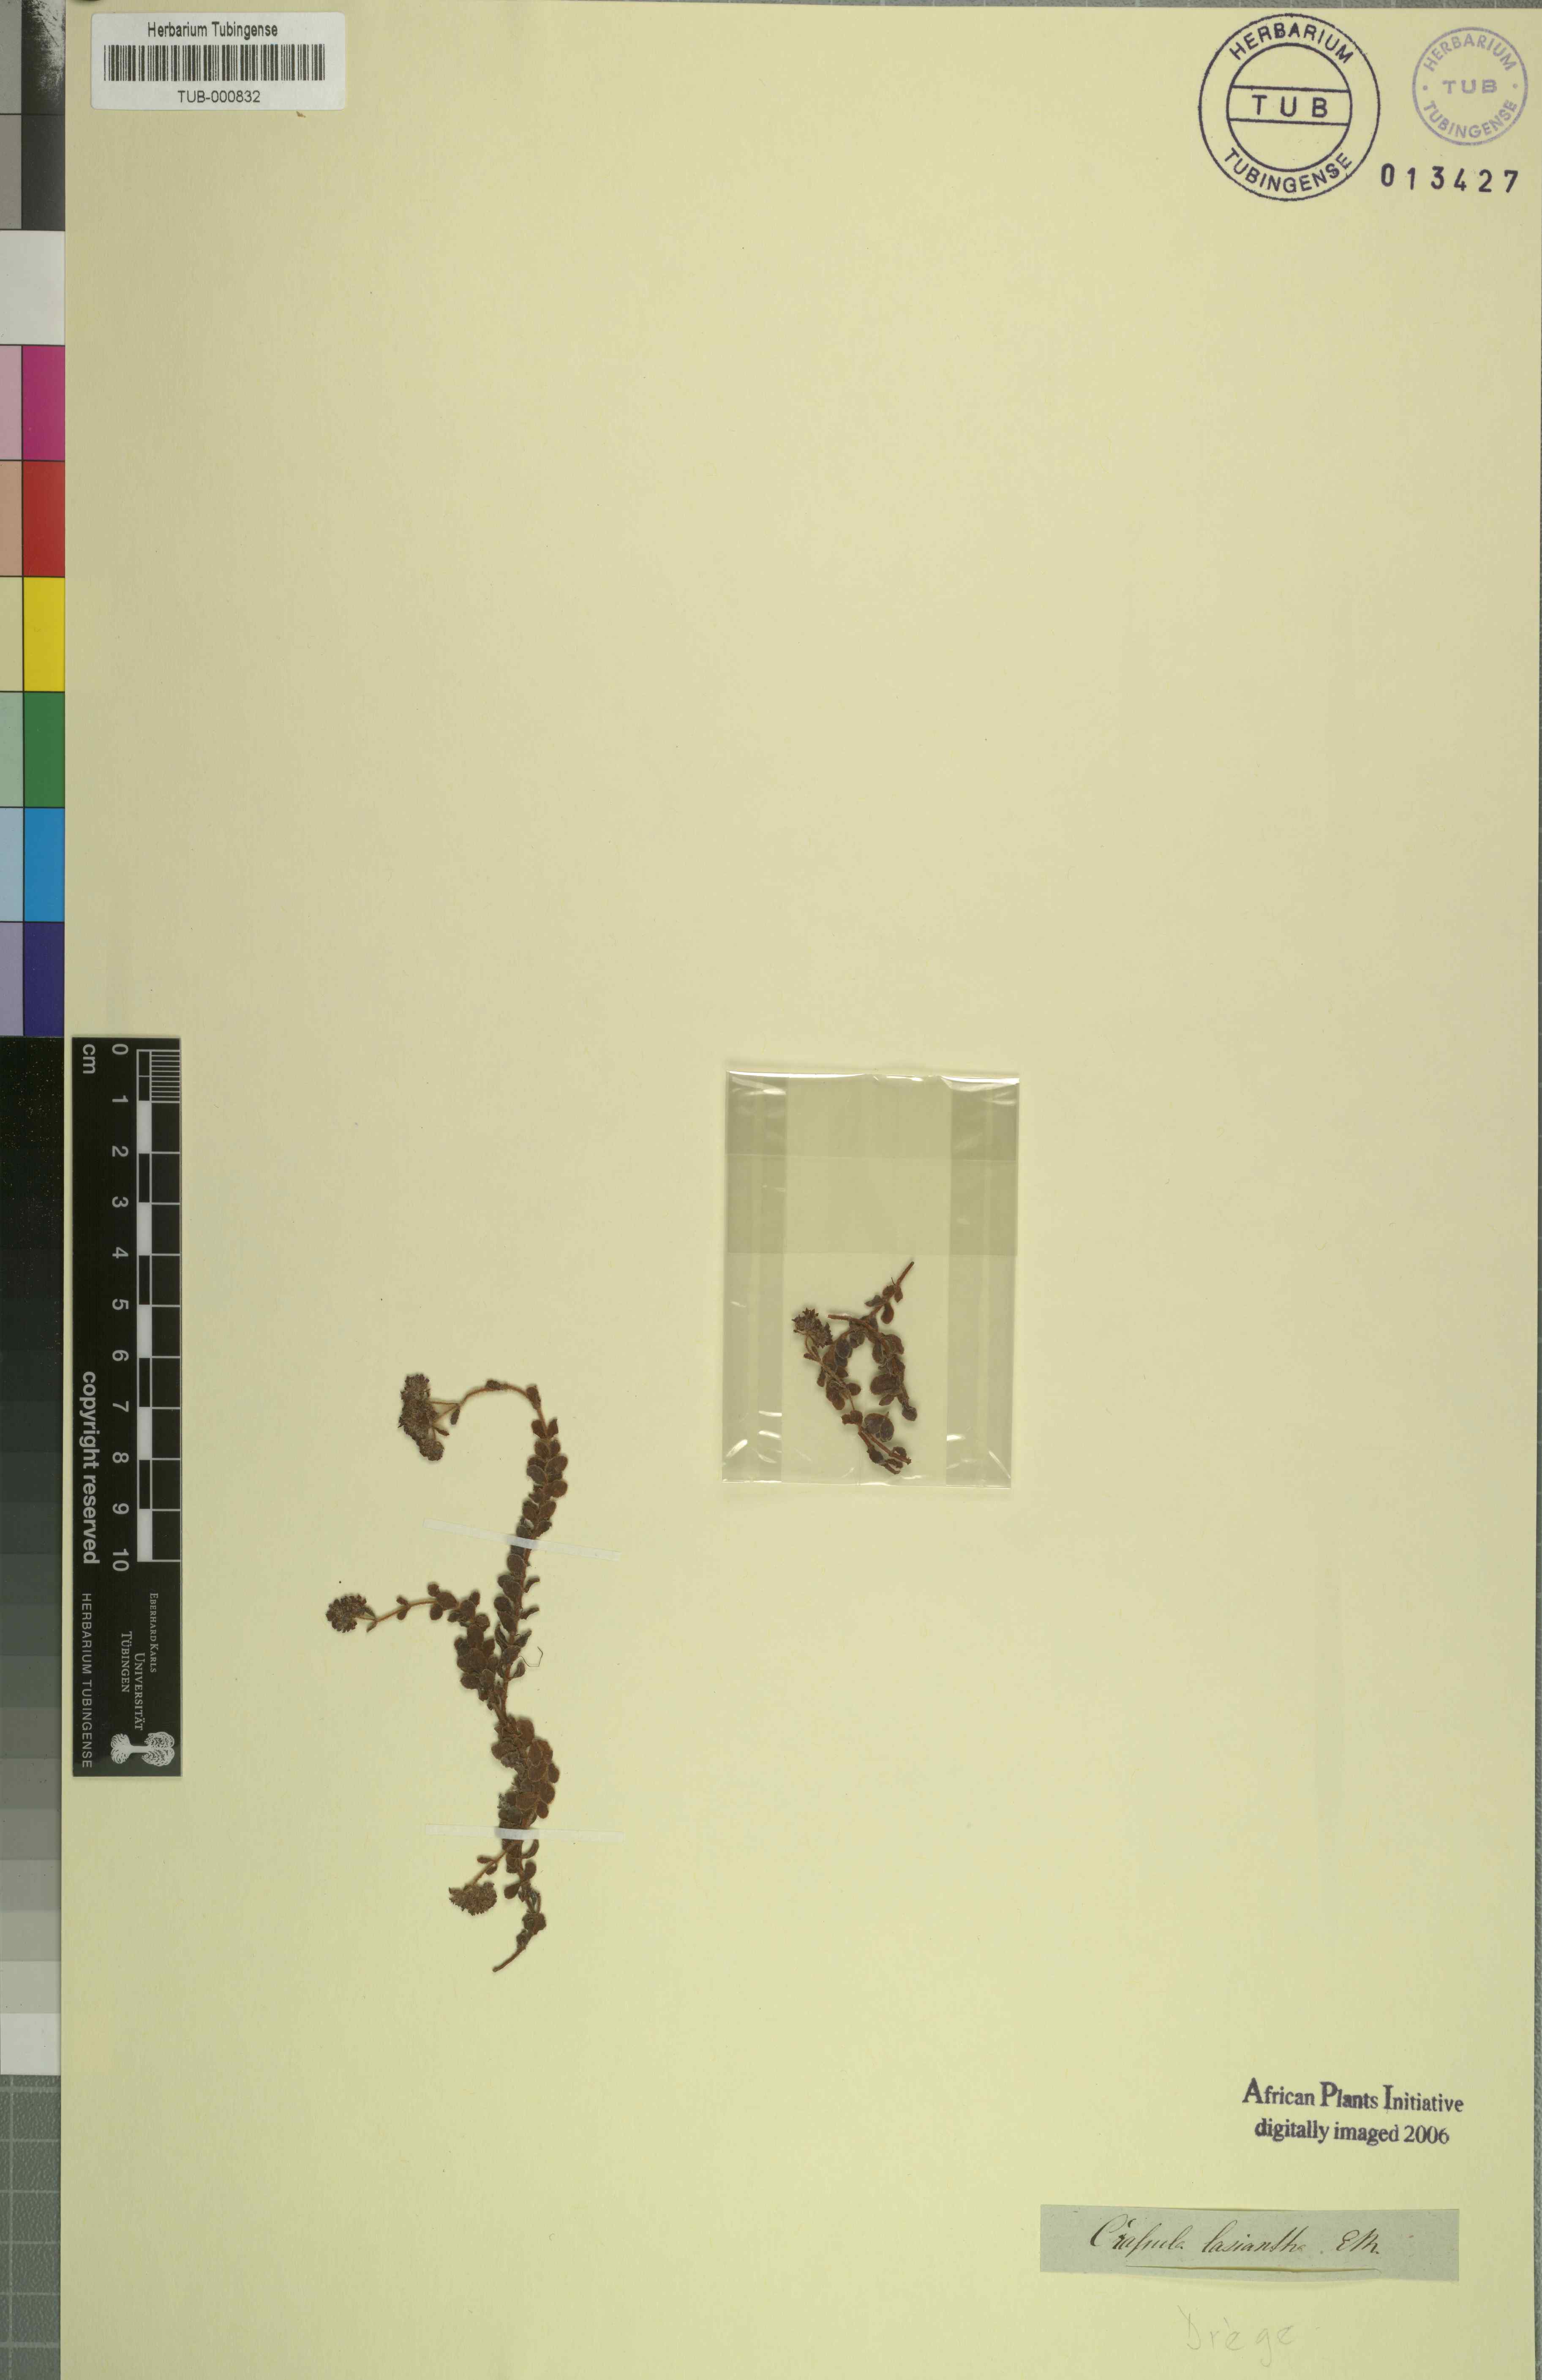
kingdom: Plantae
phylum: Tracheophyta
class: Magnoliopsida
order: Saxifragales
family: Crassulaceae
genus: Crassula
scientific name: Crassula lasiantha
